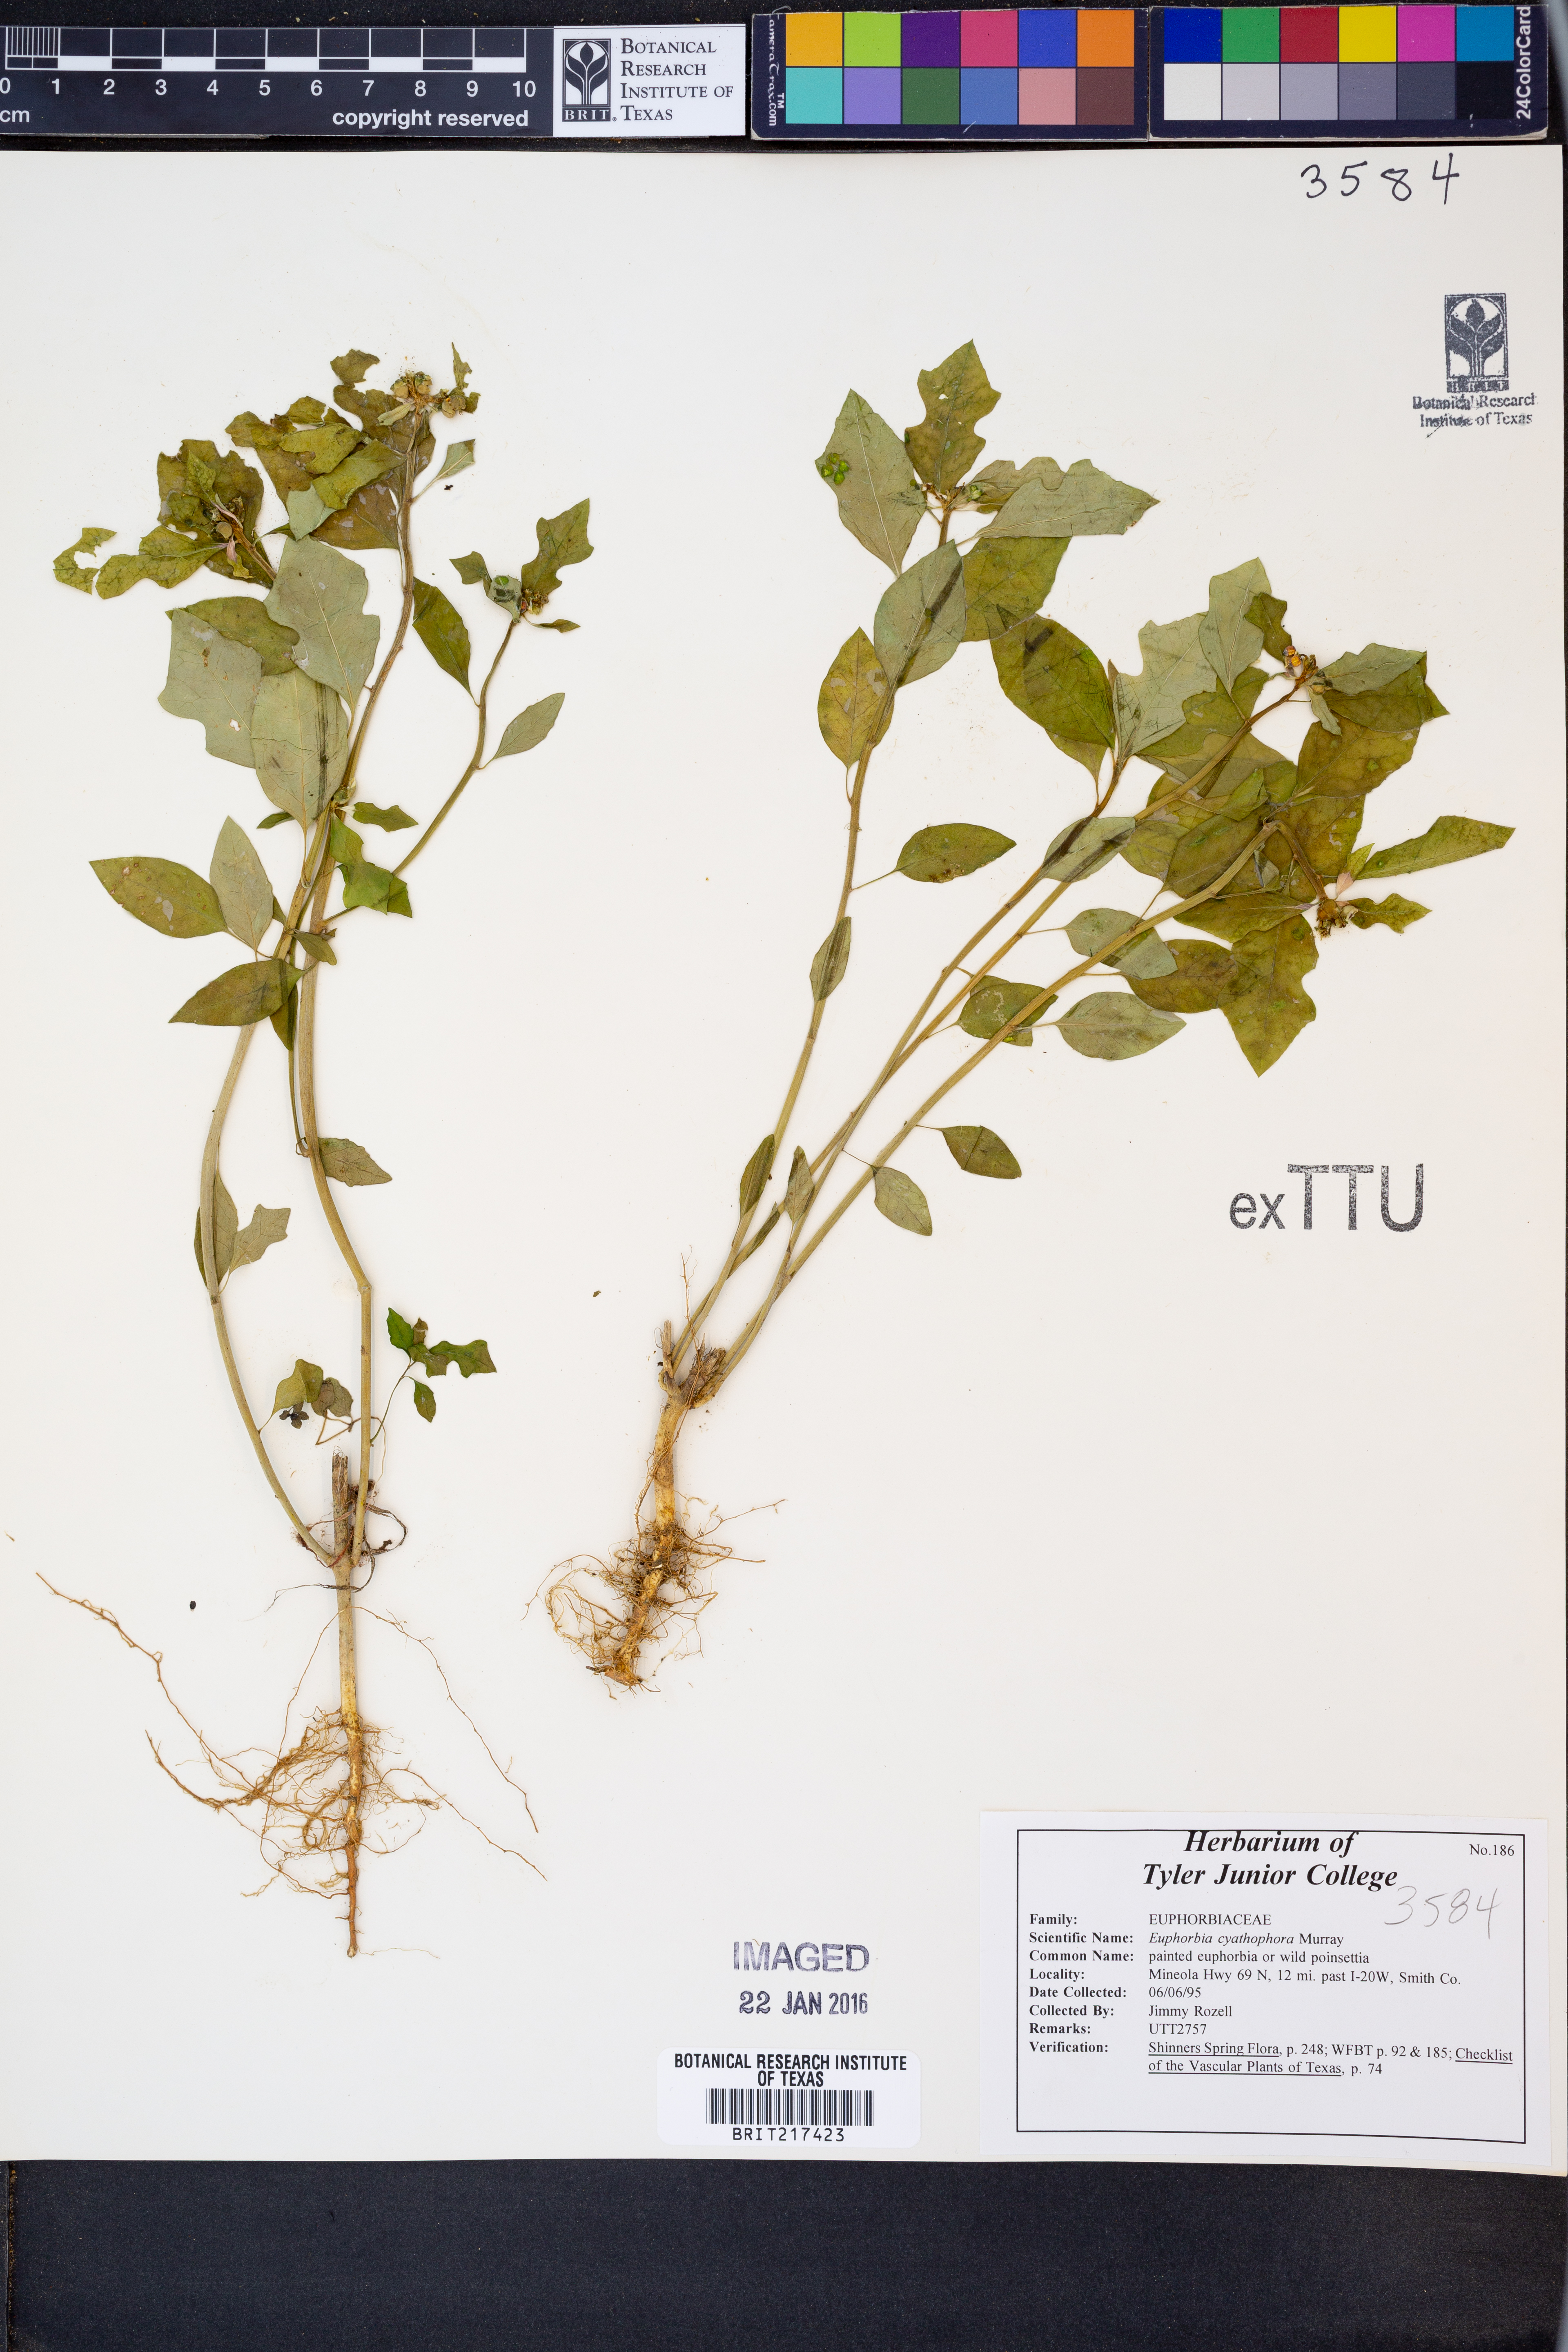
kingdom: Plantae
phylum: Tracheophyta
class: Magnoliopsida
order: Malpighiales
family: Euphorbiaceae
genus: Euphorbia
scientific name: Euphorbia heterophylla
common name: Mexican fireplant
